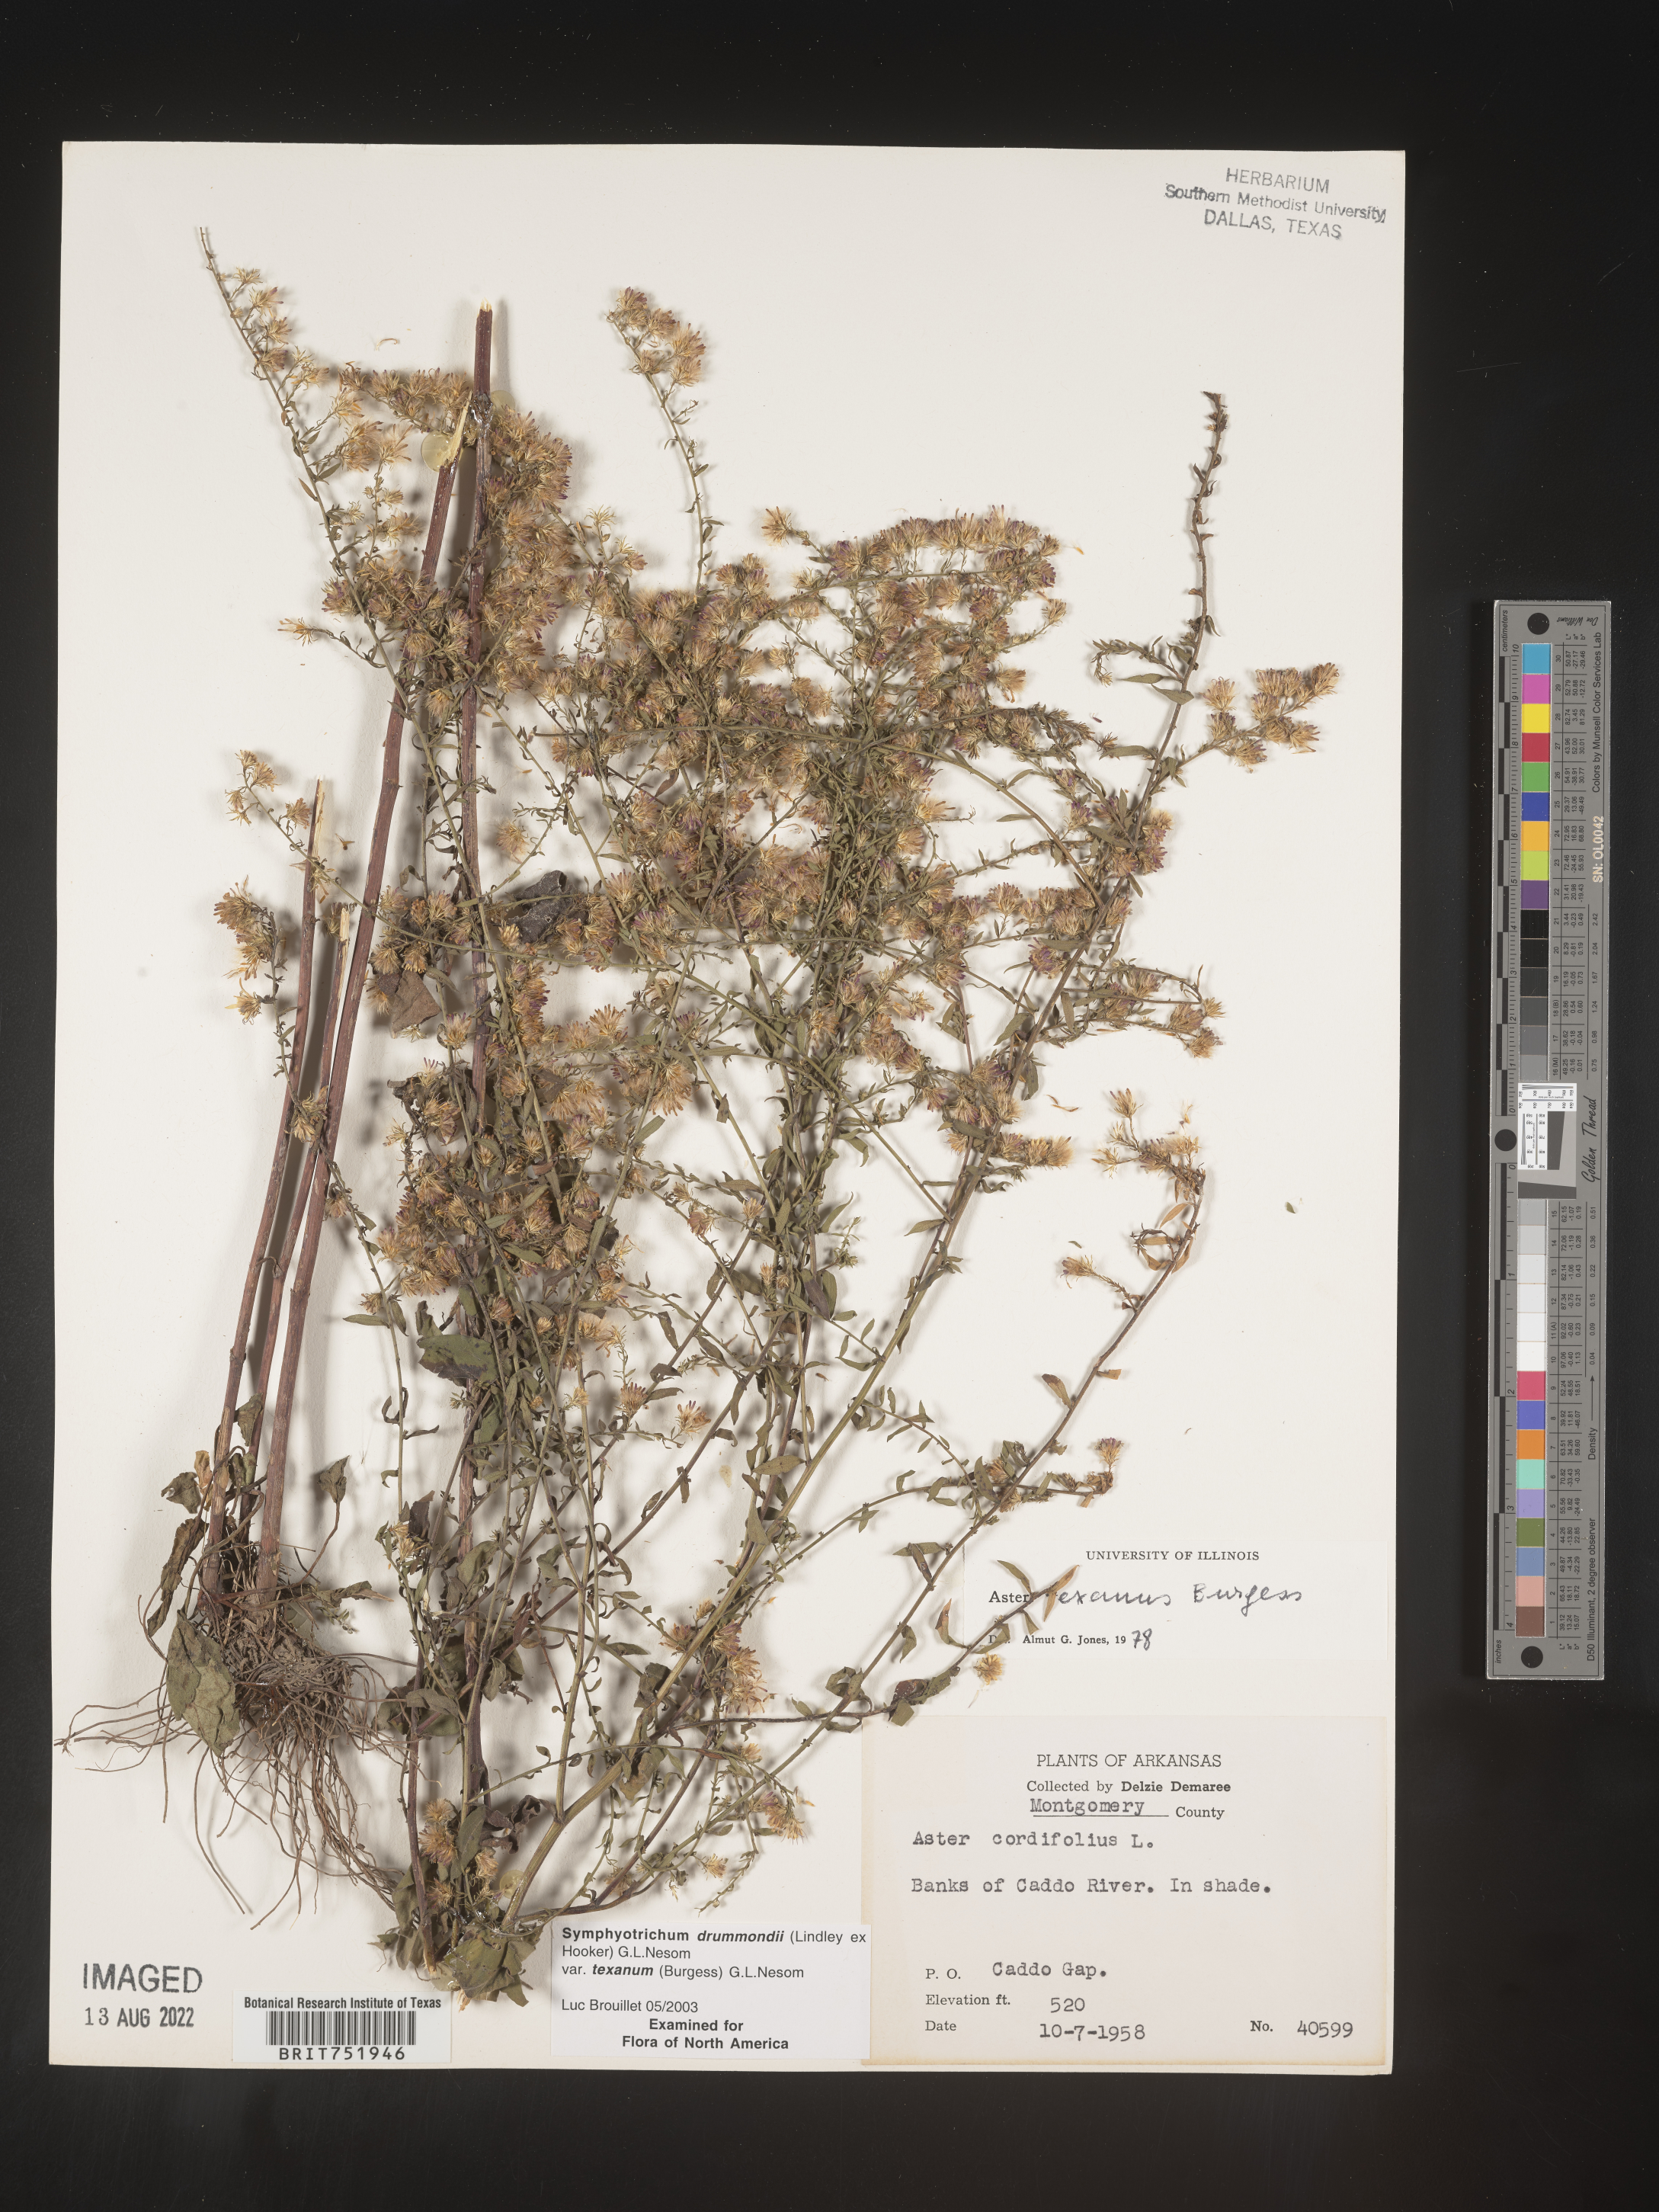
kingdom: Plantae
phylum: Tracheophyta
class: Magnoliopsida
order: Asterales
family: Asteraceae
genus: Symphyotrichum
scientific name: Symphyotrichum drummondii
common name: Drummond's aster
